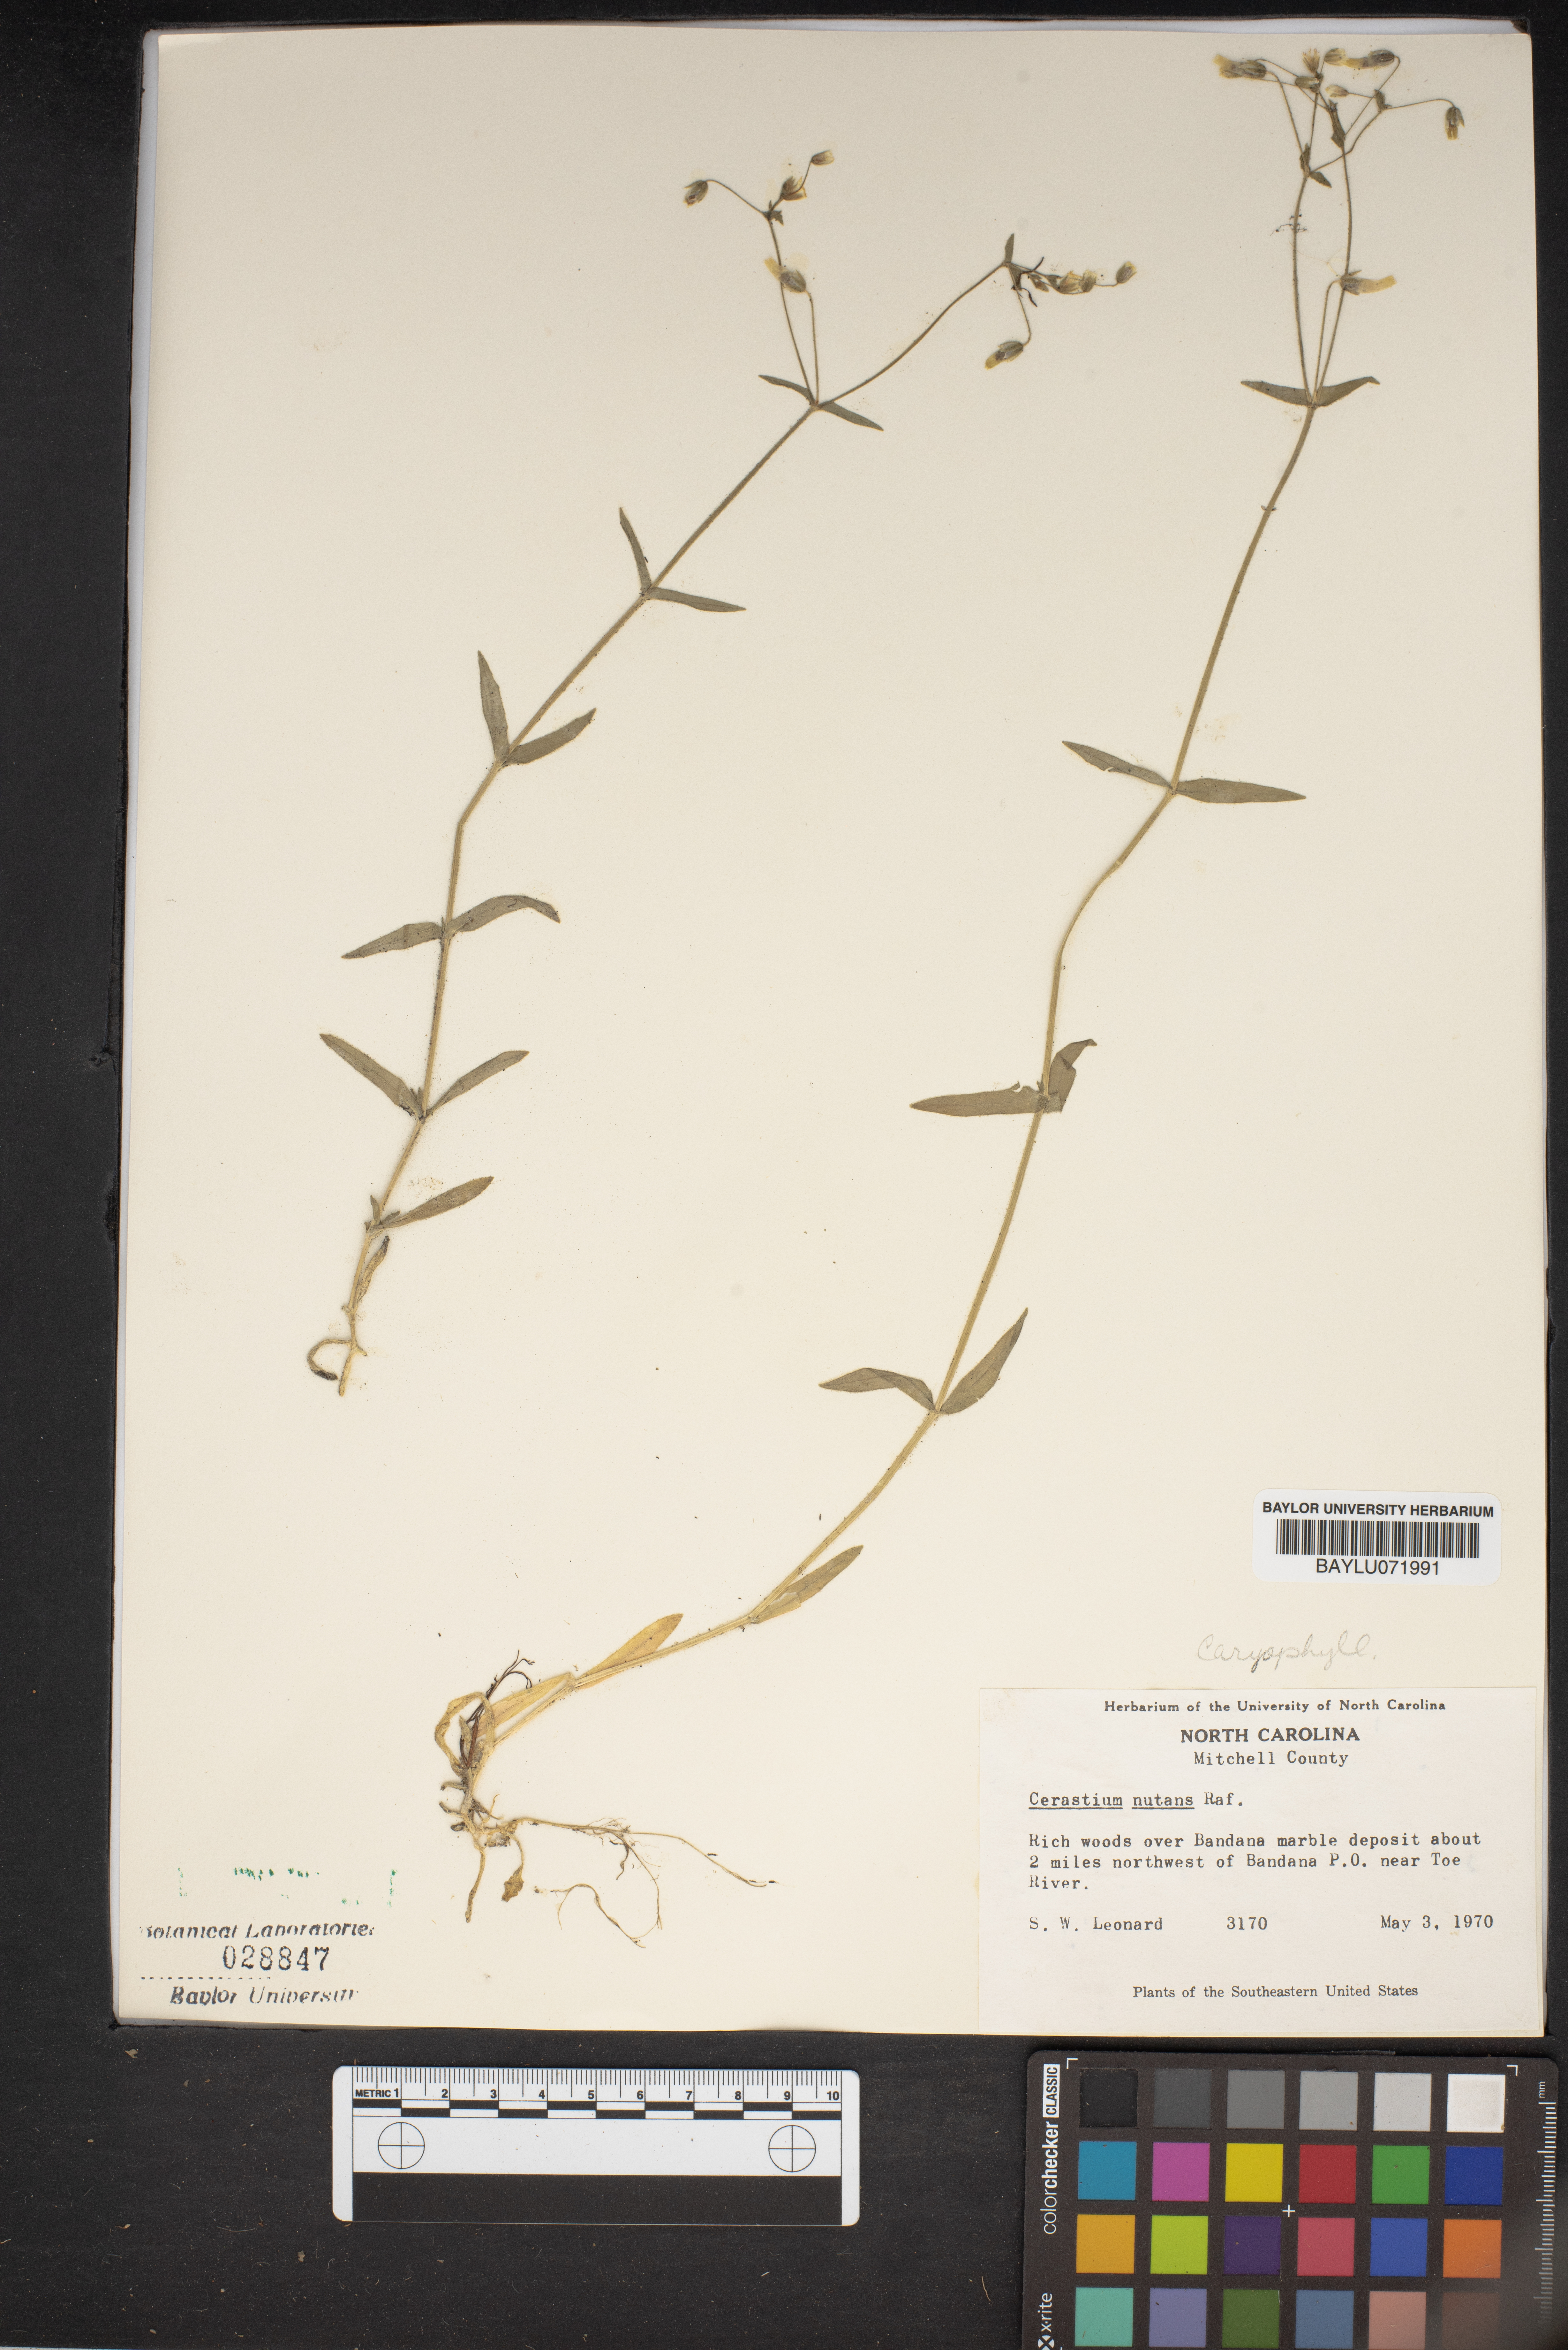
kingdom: Plantae
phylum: Tracheophyta
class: Magnoliopsida
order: Caryophyllales
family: Caryophyllaceae
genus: Cerastium
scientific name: Cerastium nutans
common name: Long-stalked chickweed
